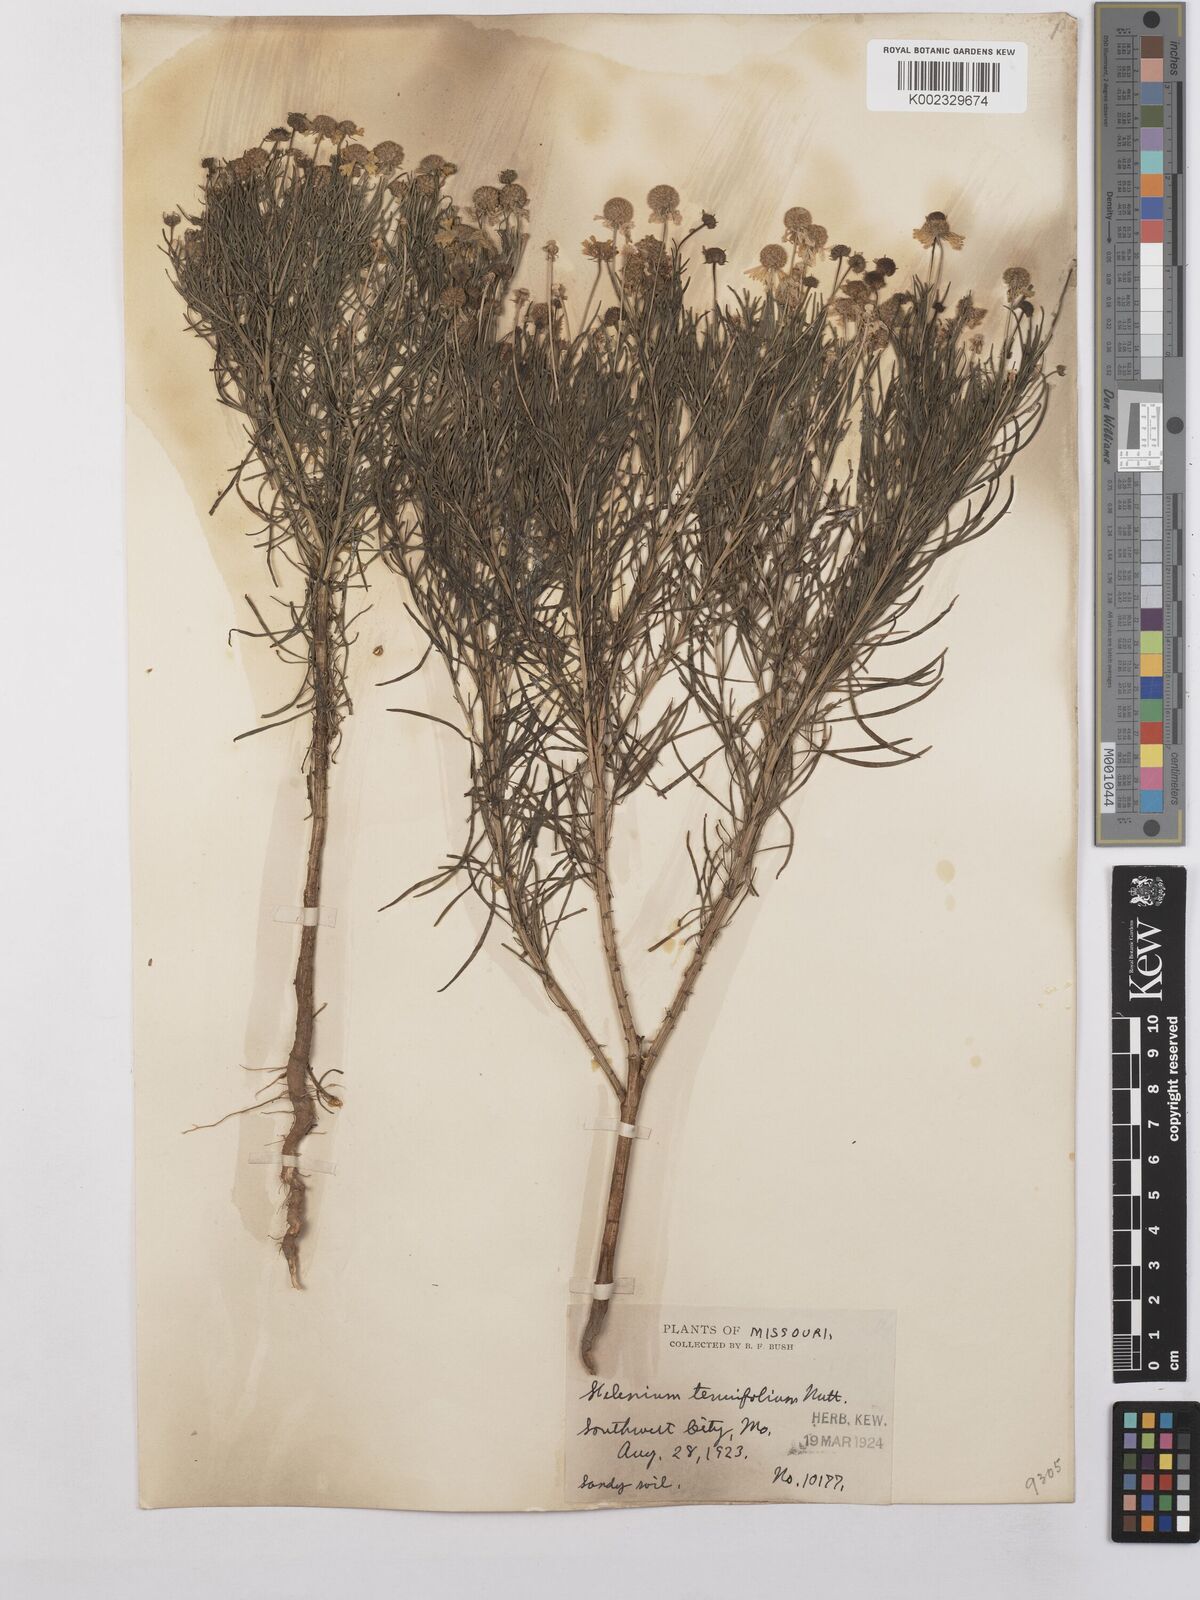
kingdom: Plantae
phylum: Tracheophyta
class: Magnoliopsida
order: Asterales
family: Asteraceae
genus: Helenium
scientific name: Helenium amarum
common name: Bitter sneezeweed
